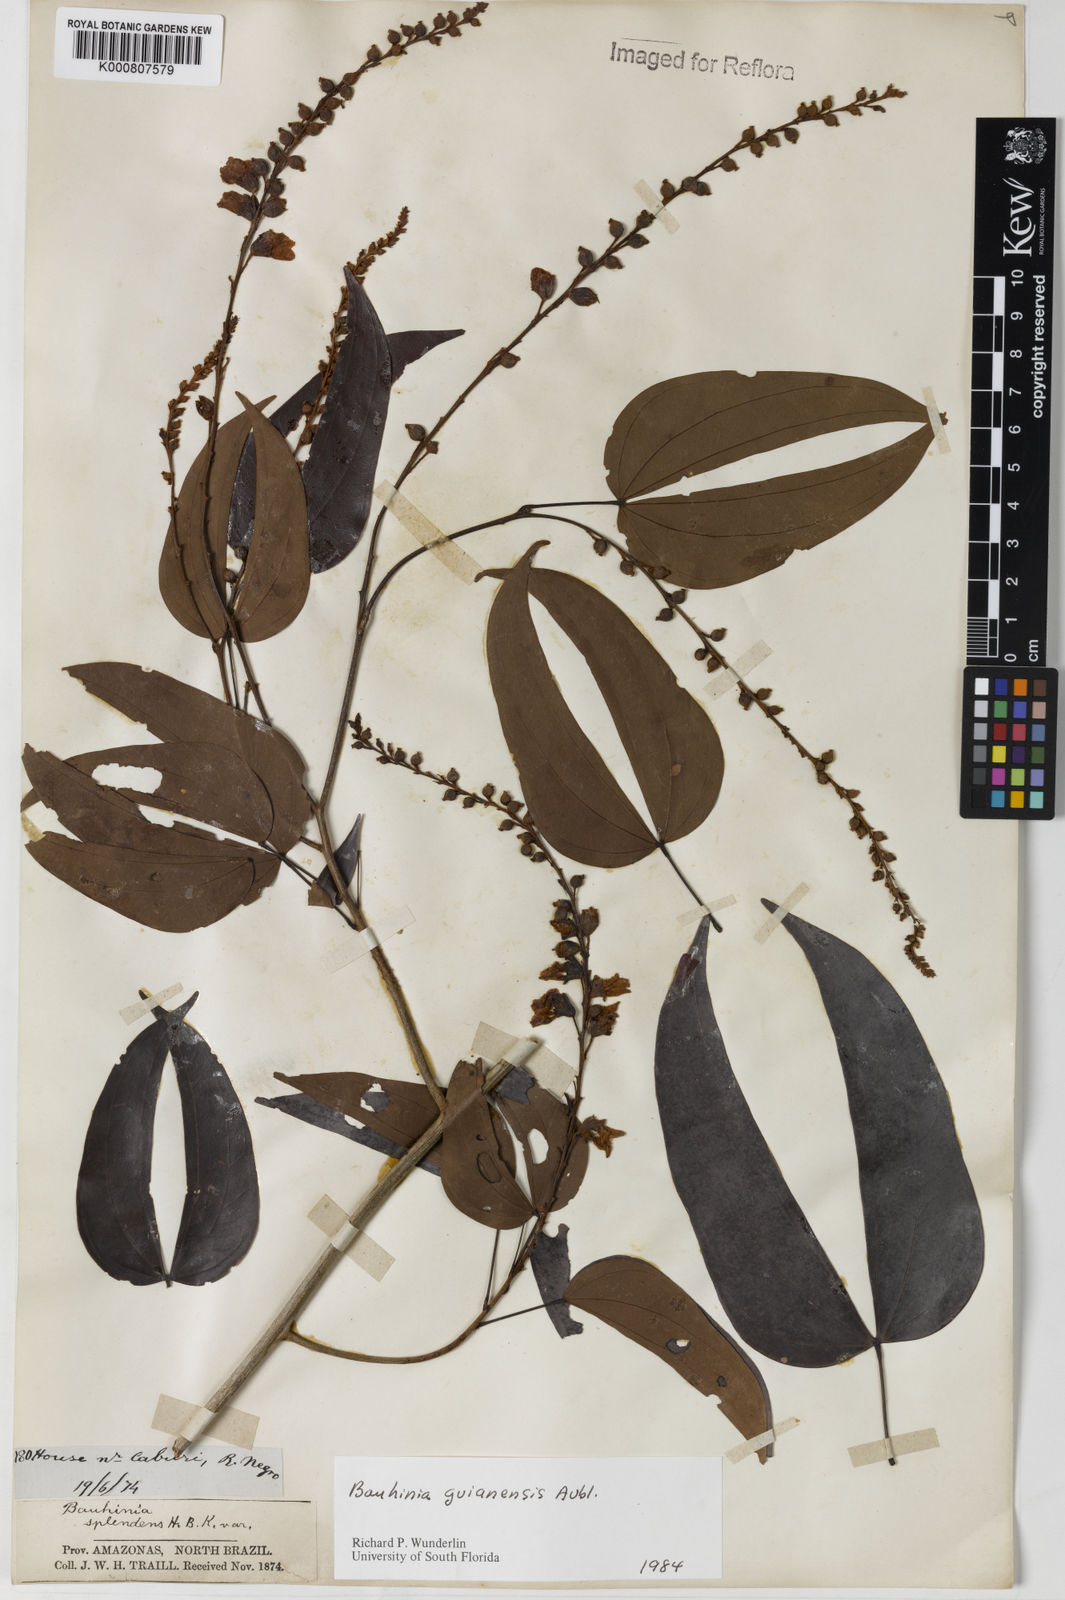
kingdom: Plantae
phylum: Tracheophyta
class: Magnoliopsida
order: Fabales
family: Fabaceae
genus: Schnella
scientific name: Schnella guianensis
